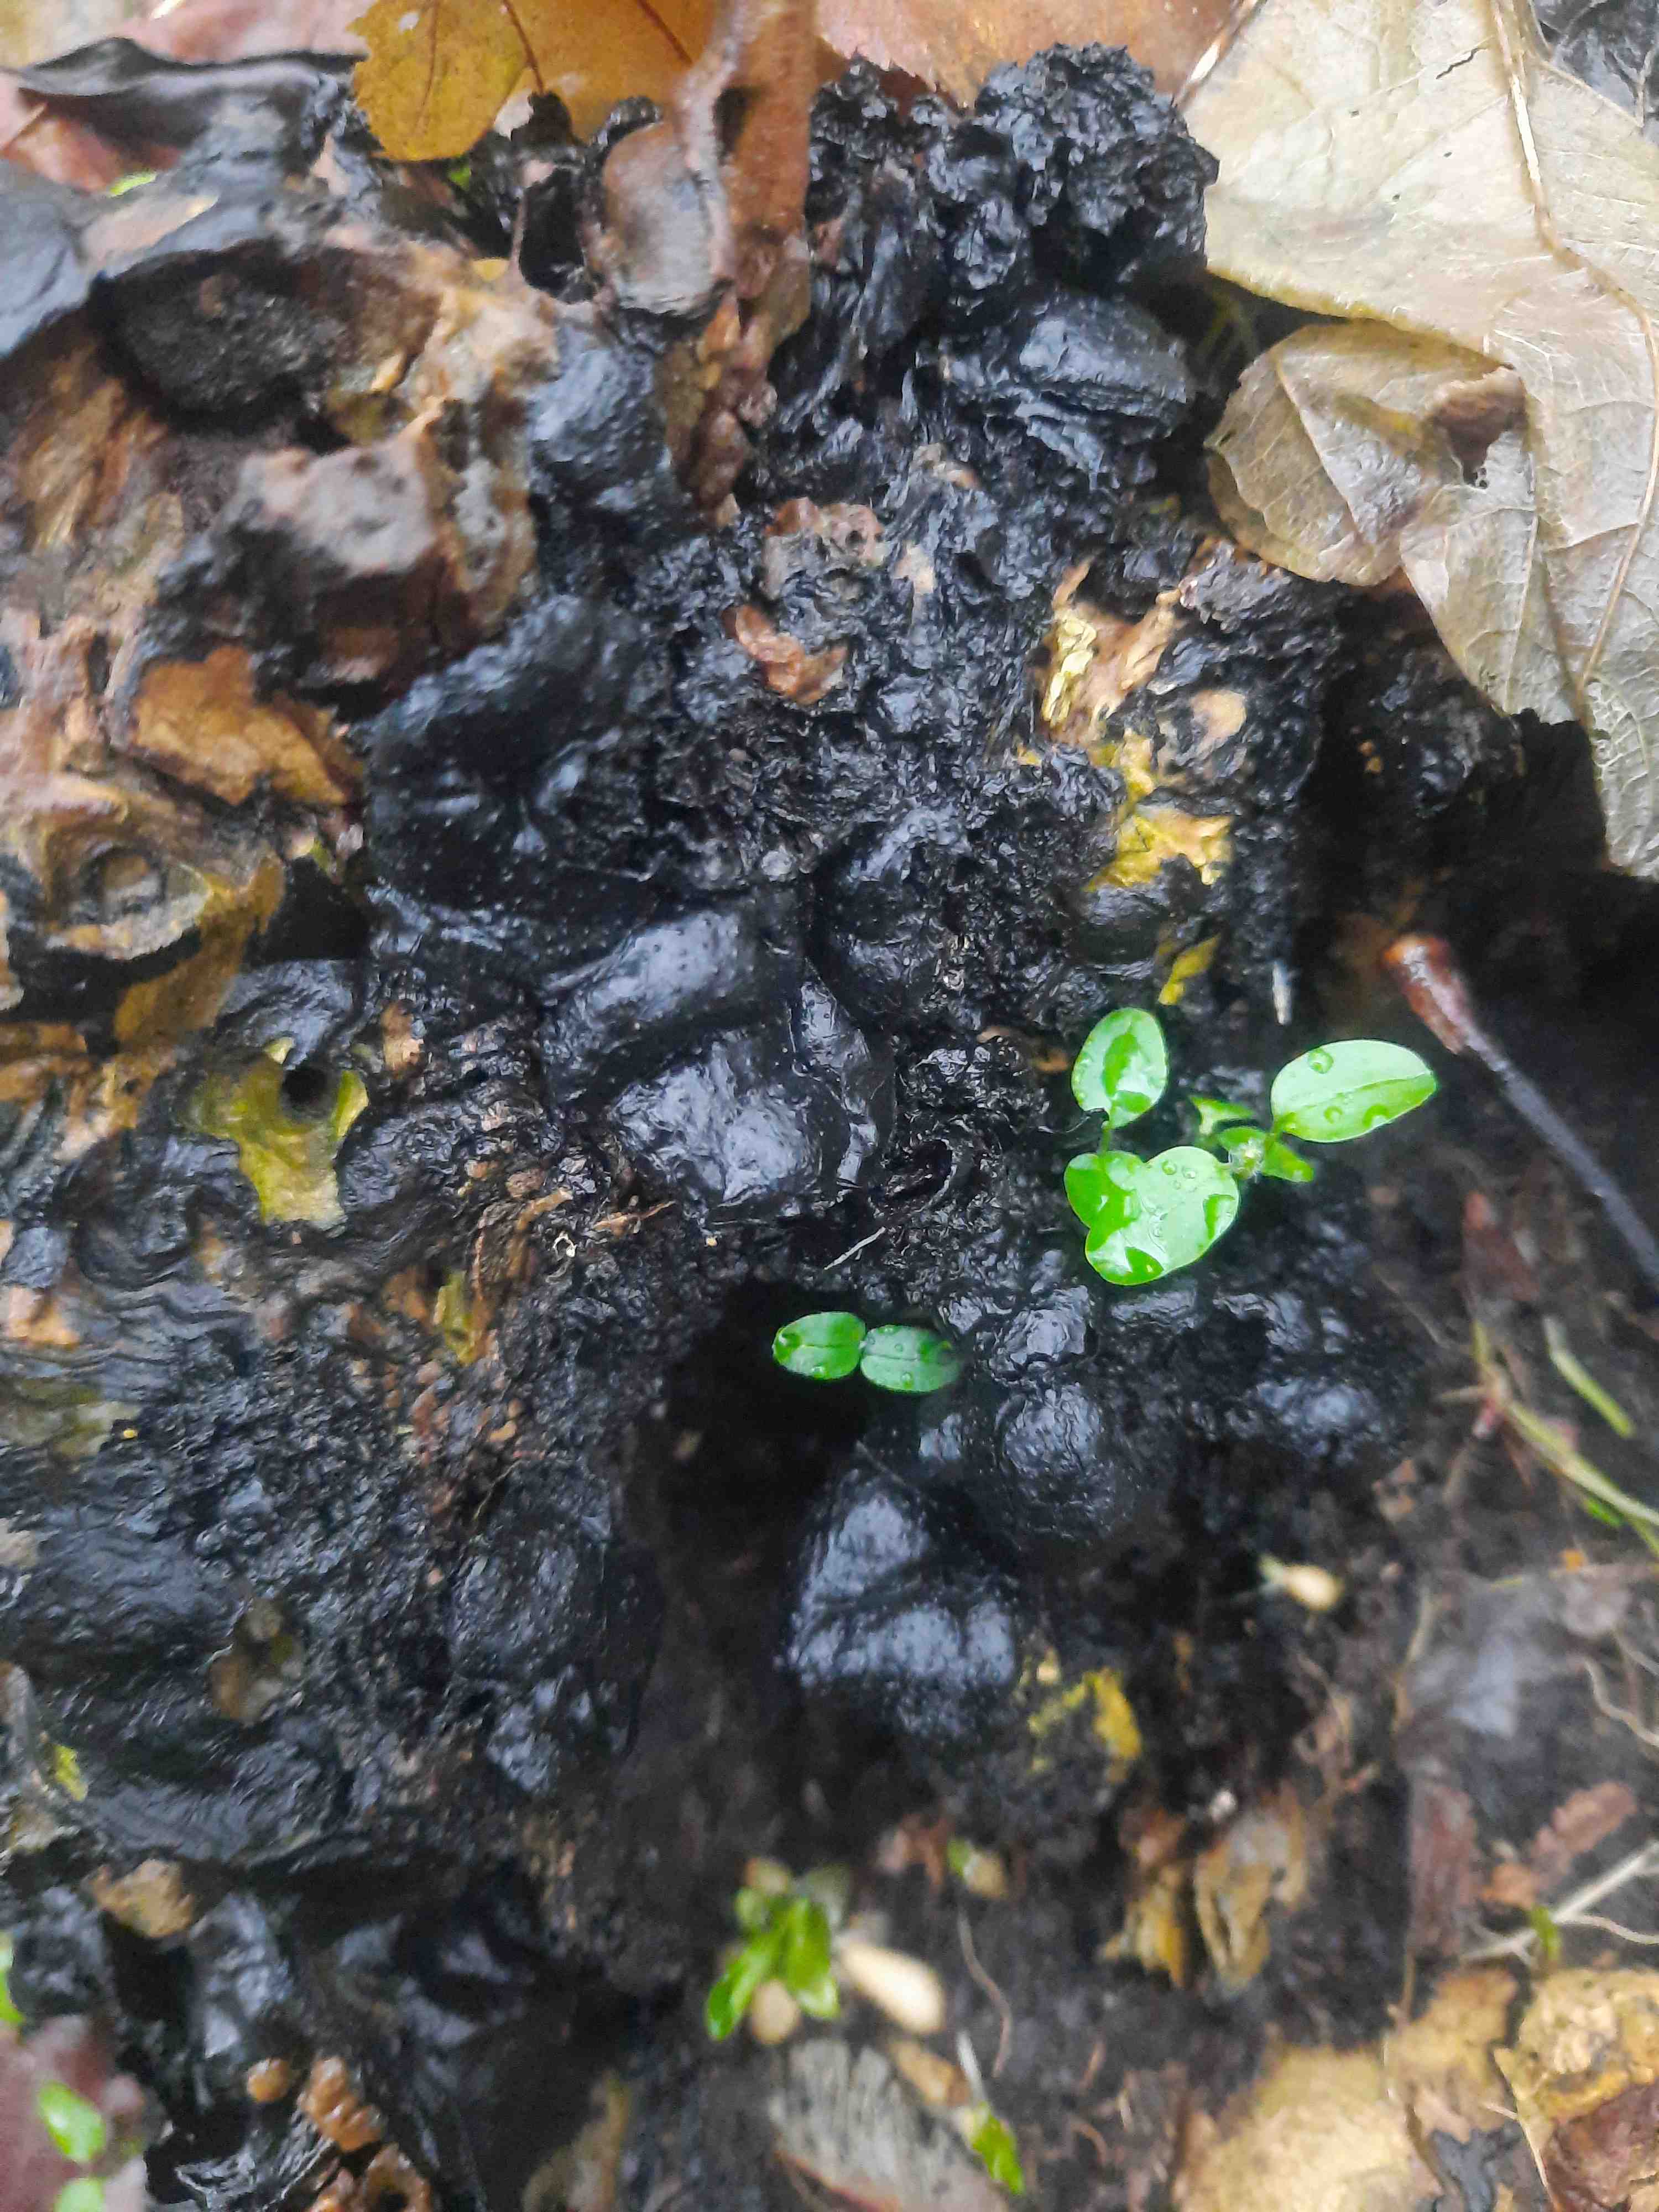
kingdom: Fungi
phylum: Ascomycota
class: Sordariomycetes
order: Xylariales
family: Xylariaceae
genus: Kretzschmaria
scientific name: Kretzschmaria deusta
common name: stor kulsvamp
